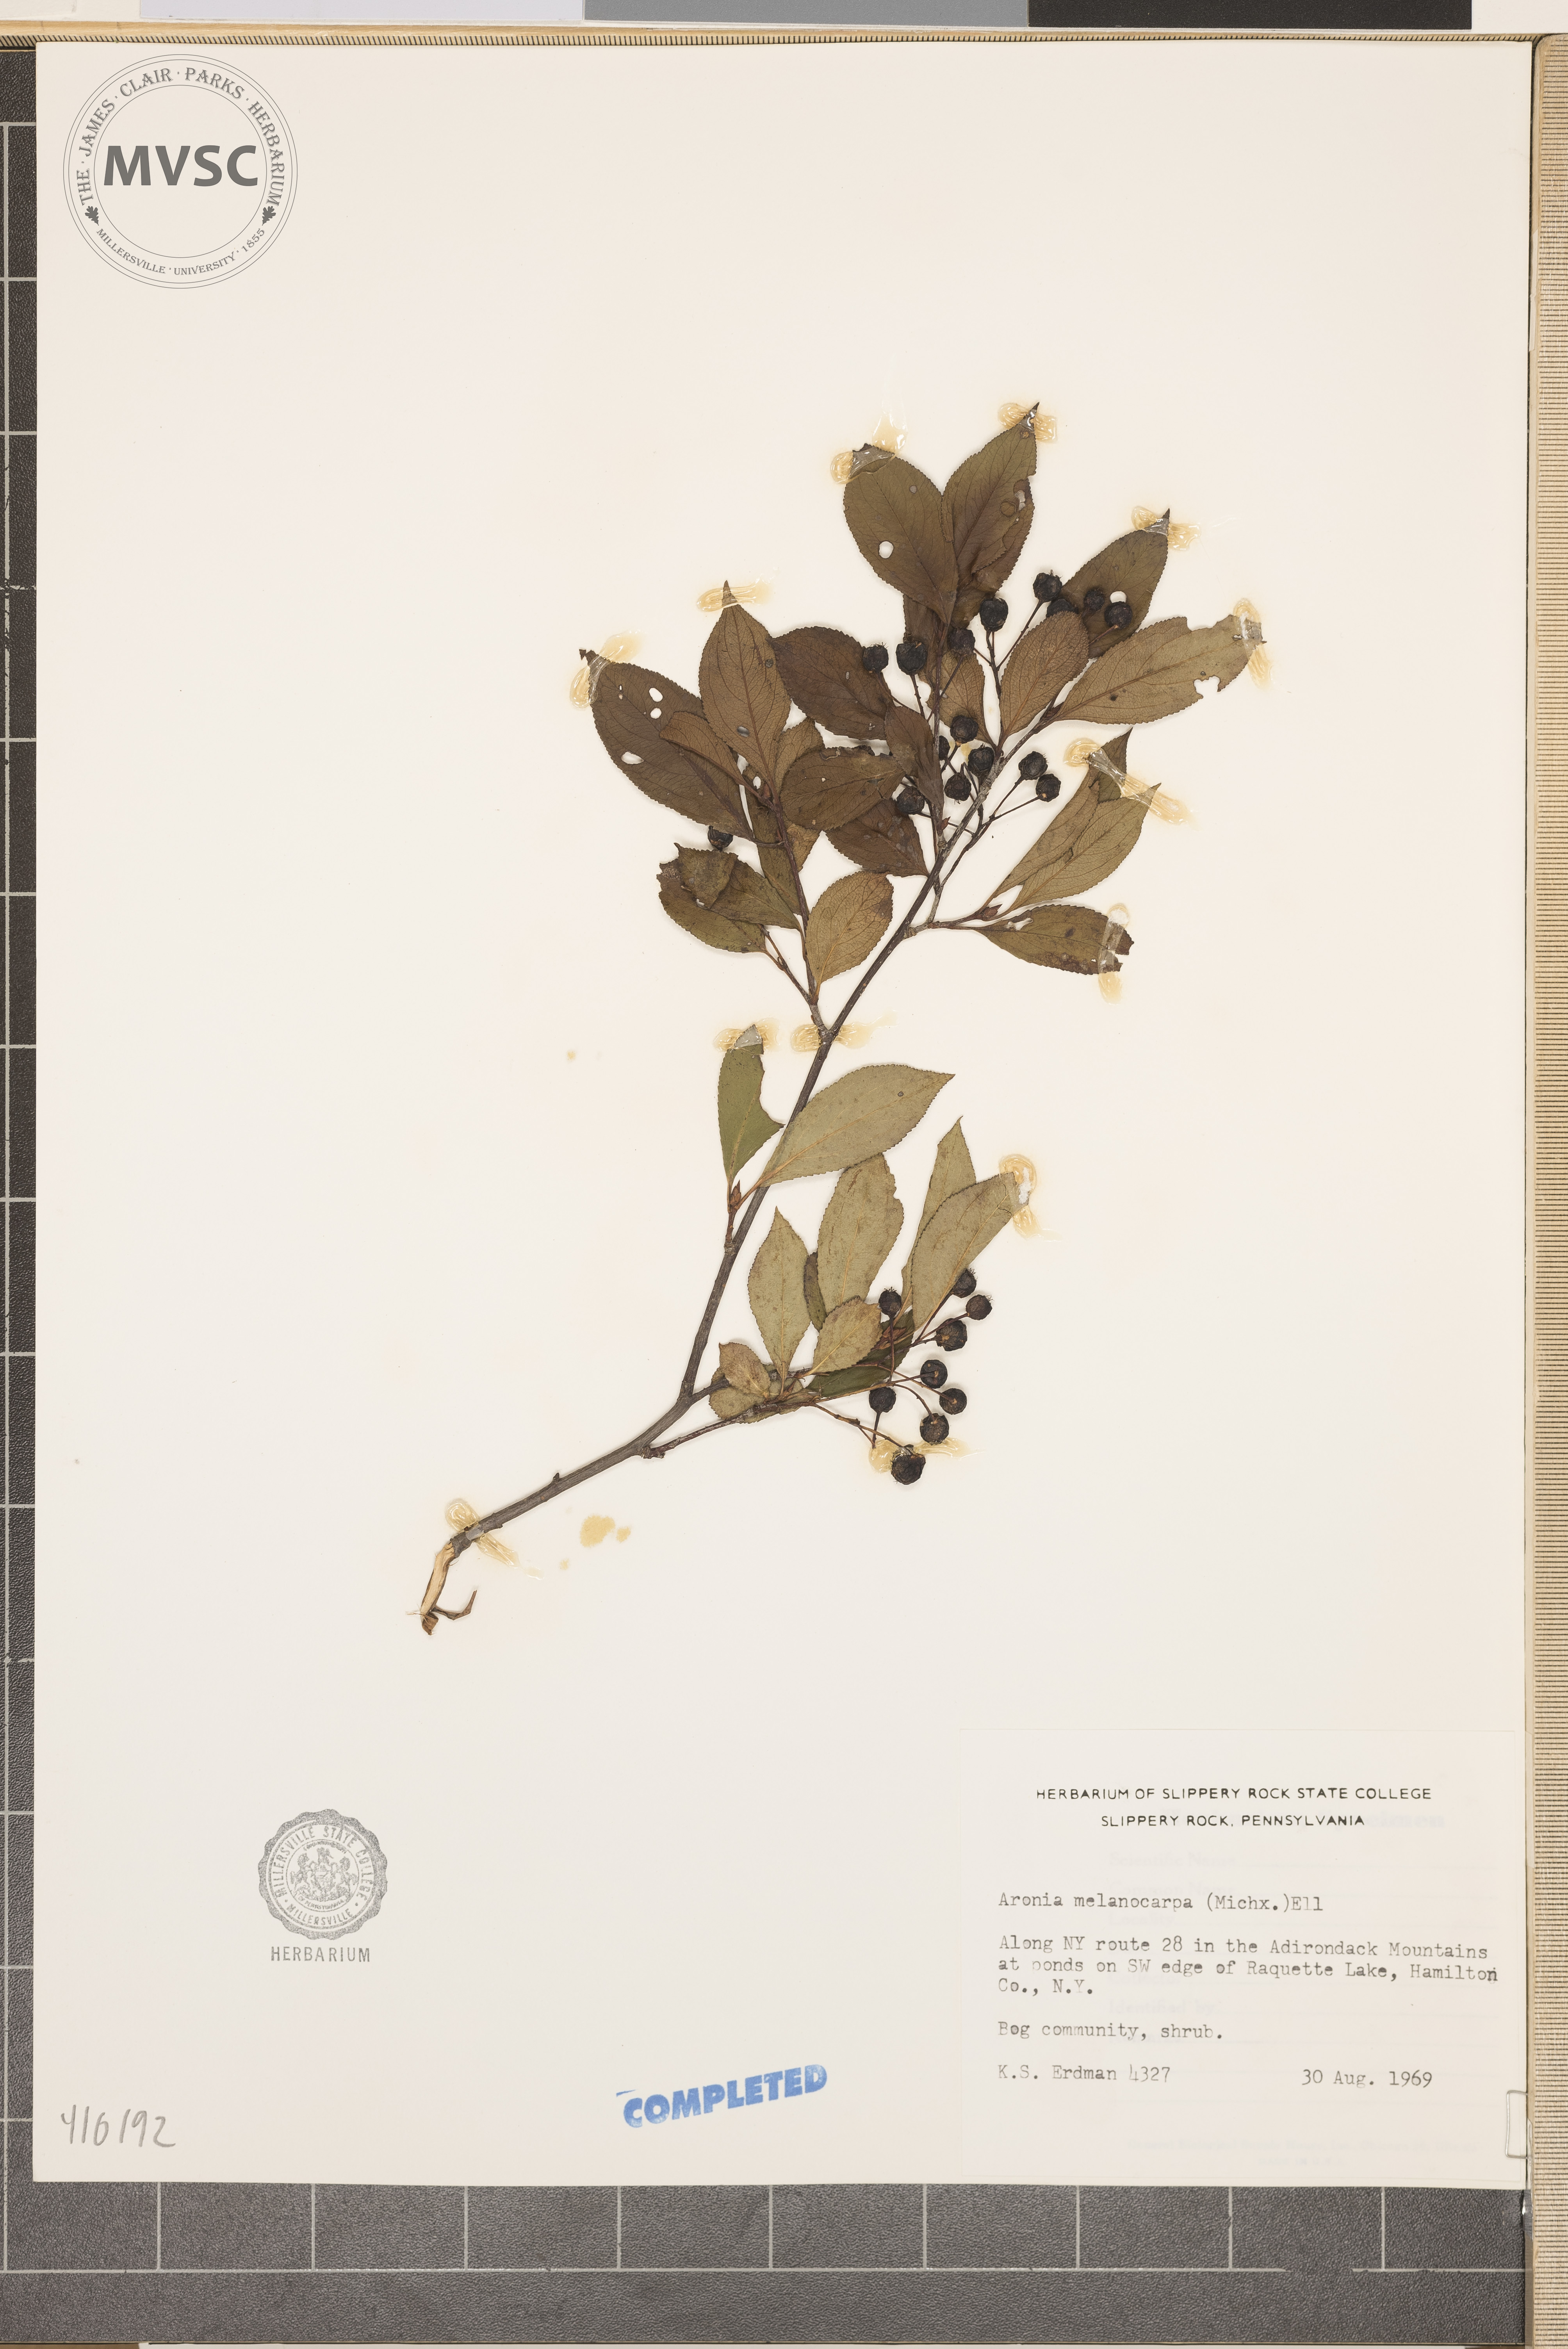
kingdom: Plantae
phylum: Tracheophyta
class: Magnoliopsida
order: Rosales
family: Rosaceae
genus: Aronia
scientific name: Aronia melanocarpa
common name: Black chokeberry
